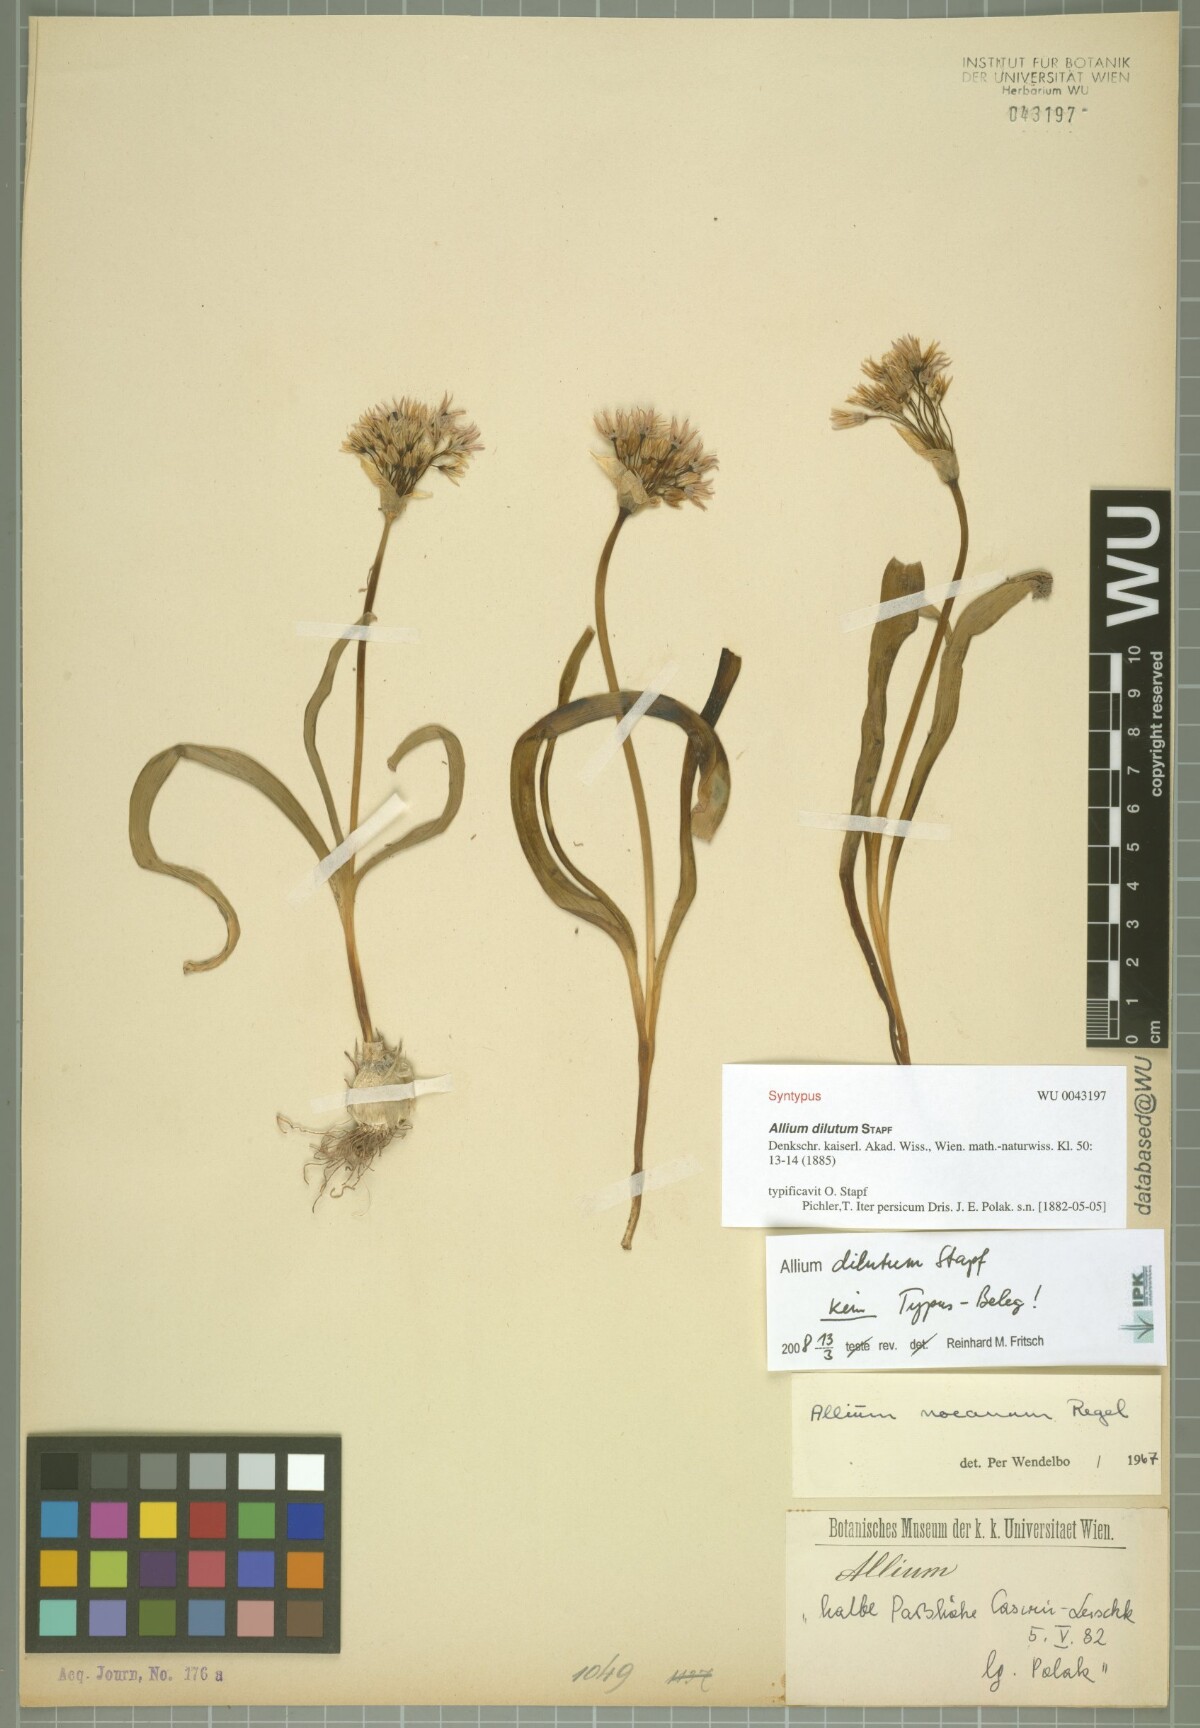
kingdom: Plantae
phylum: Tracheophyta
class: Liliopsida
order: Asparagales
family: Amaryllidaceae
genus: Allium
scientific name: Allium noeanum
